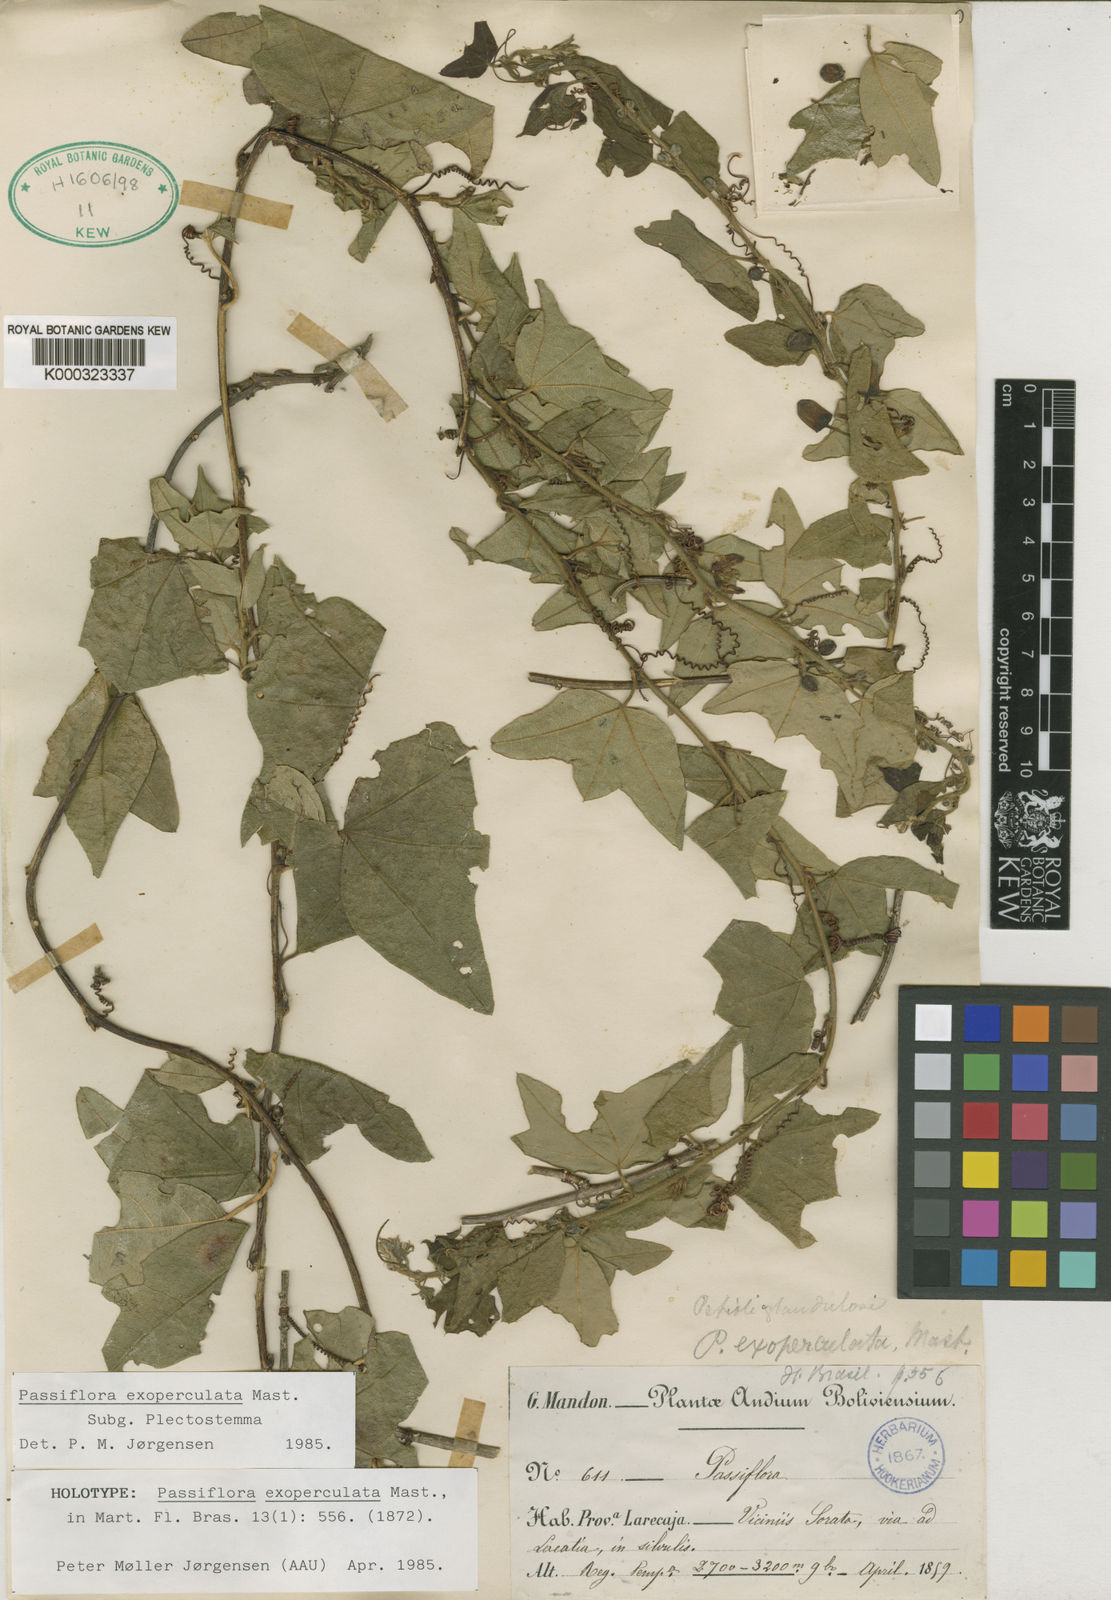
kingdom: Plantae
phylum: Tracheophyta
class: Magnoliopsida
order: Malpighiales
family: Passifloraceae
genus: Passiflora
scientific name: Passiflora exoperculata
